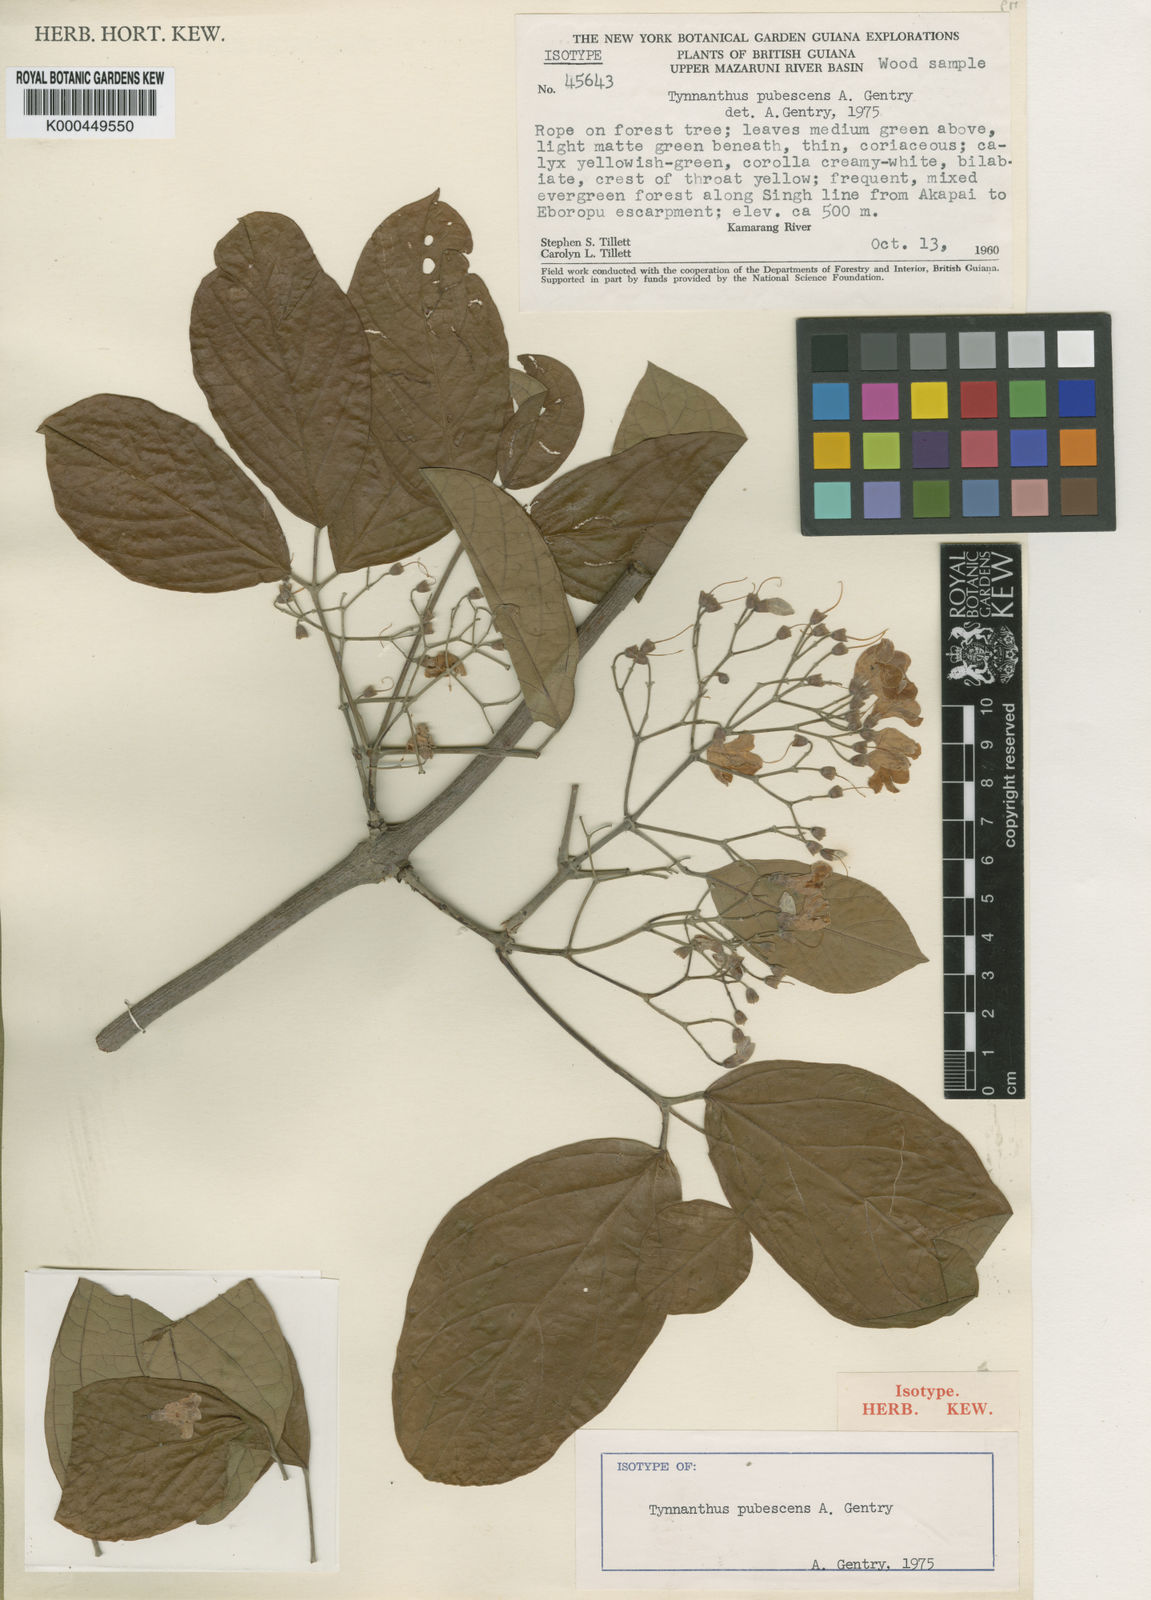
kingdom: Plantae
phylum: Tracheophyta
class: Magnoliopsida
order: Lamiales
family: Bignoniaceae
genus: Tynanthus
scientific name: Tynanthus pubescens
